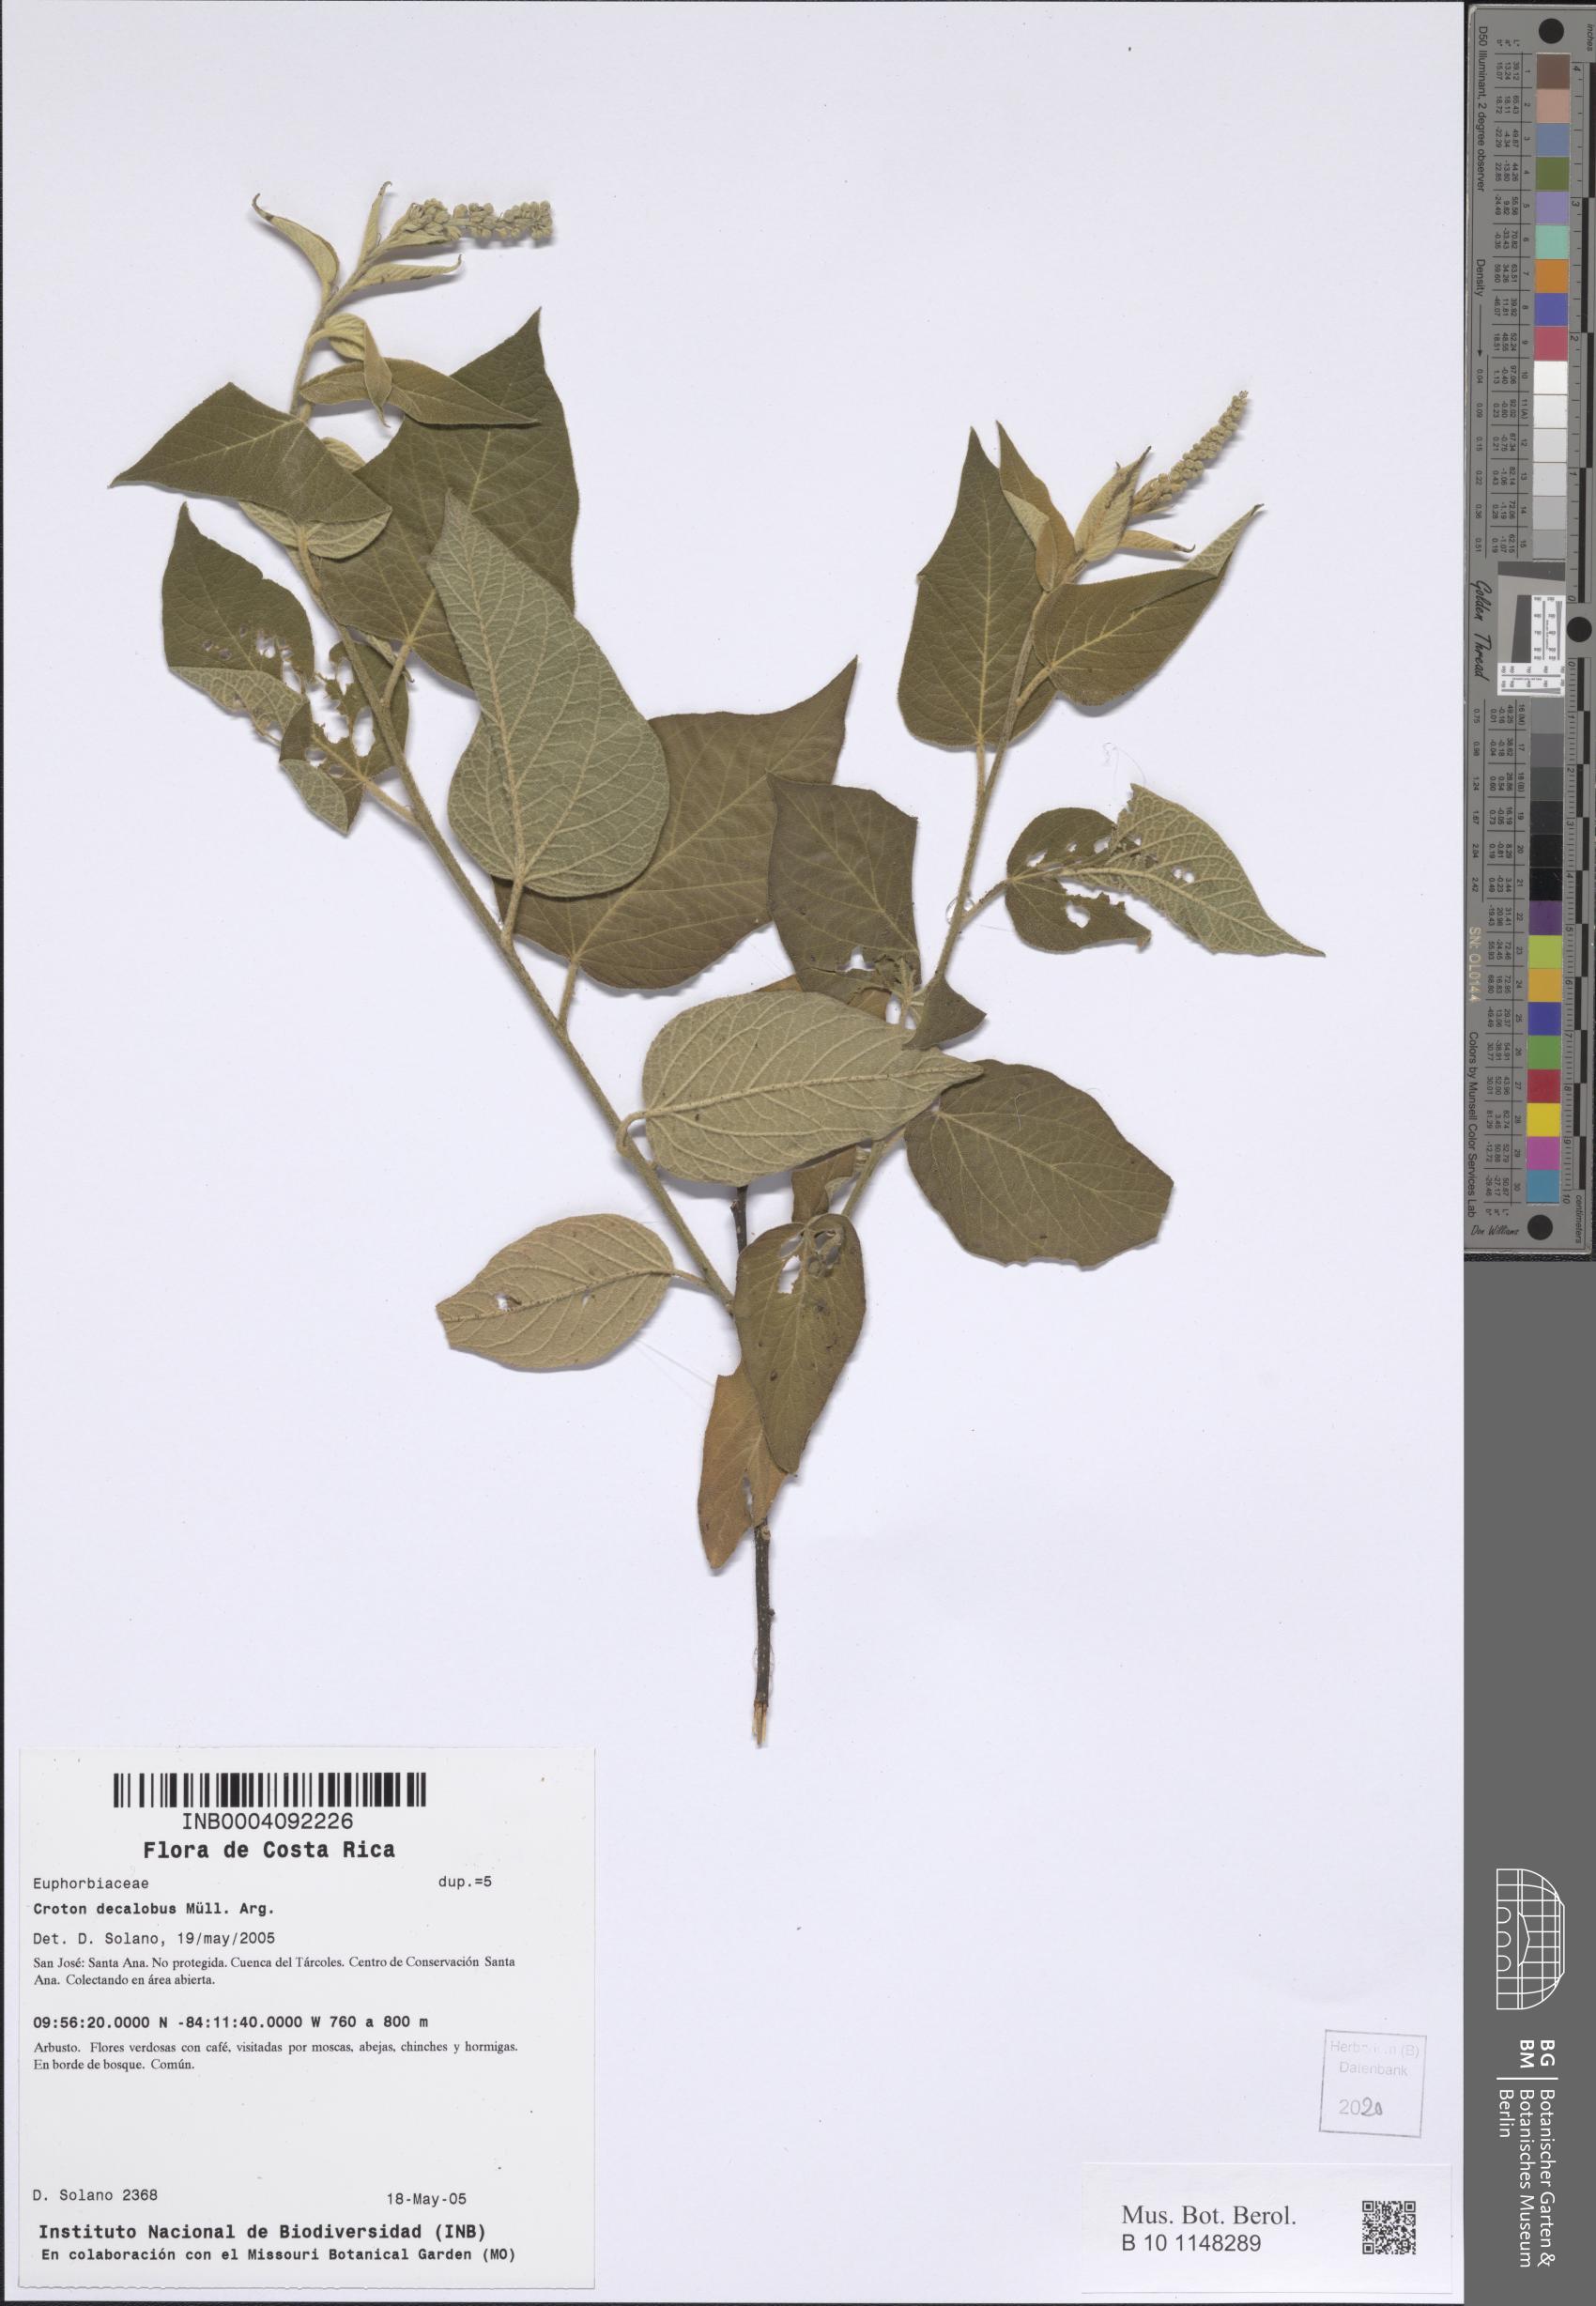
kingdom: Plantae
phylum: Tracheophyta
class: Magnoliopsida
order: Malpighiales
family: Euphorbiaceae
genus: Croton
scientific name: Croton decalobus
